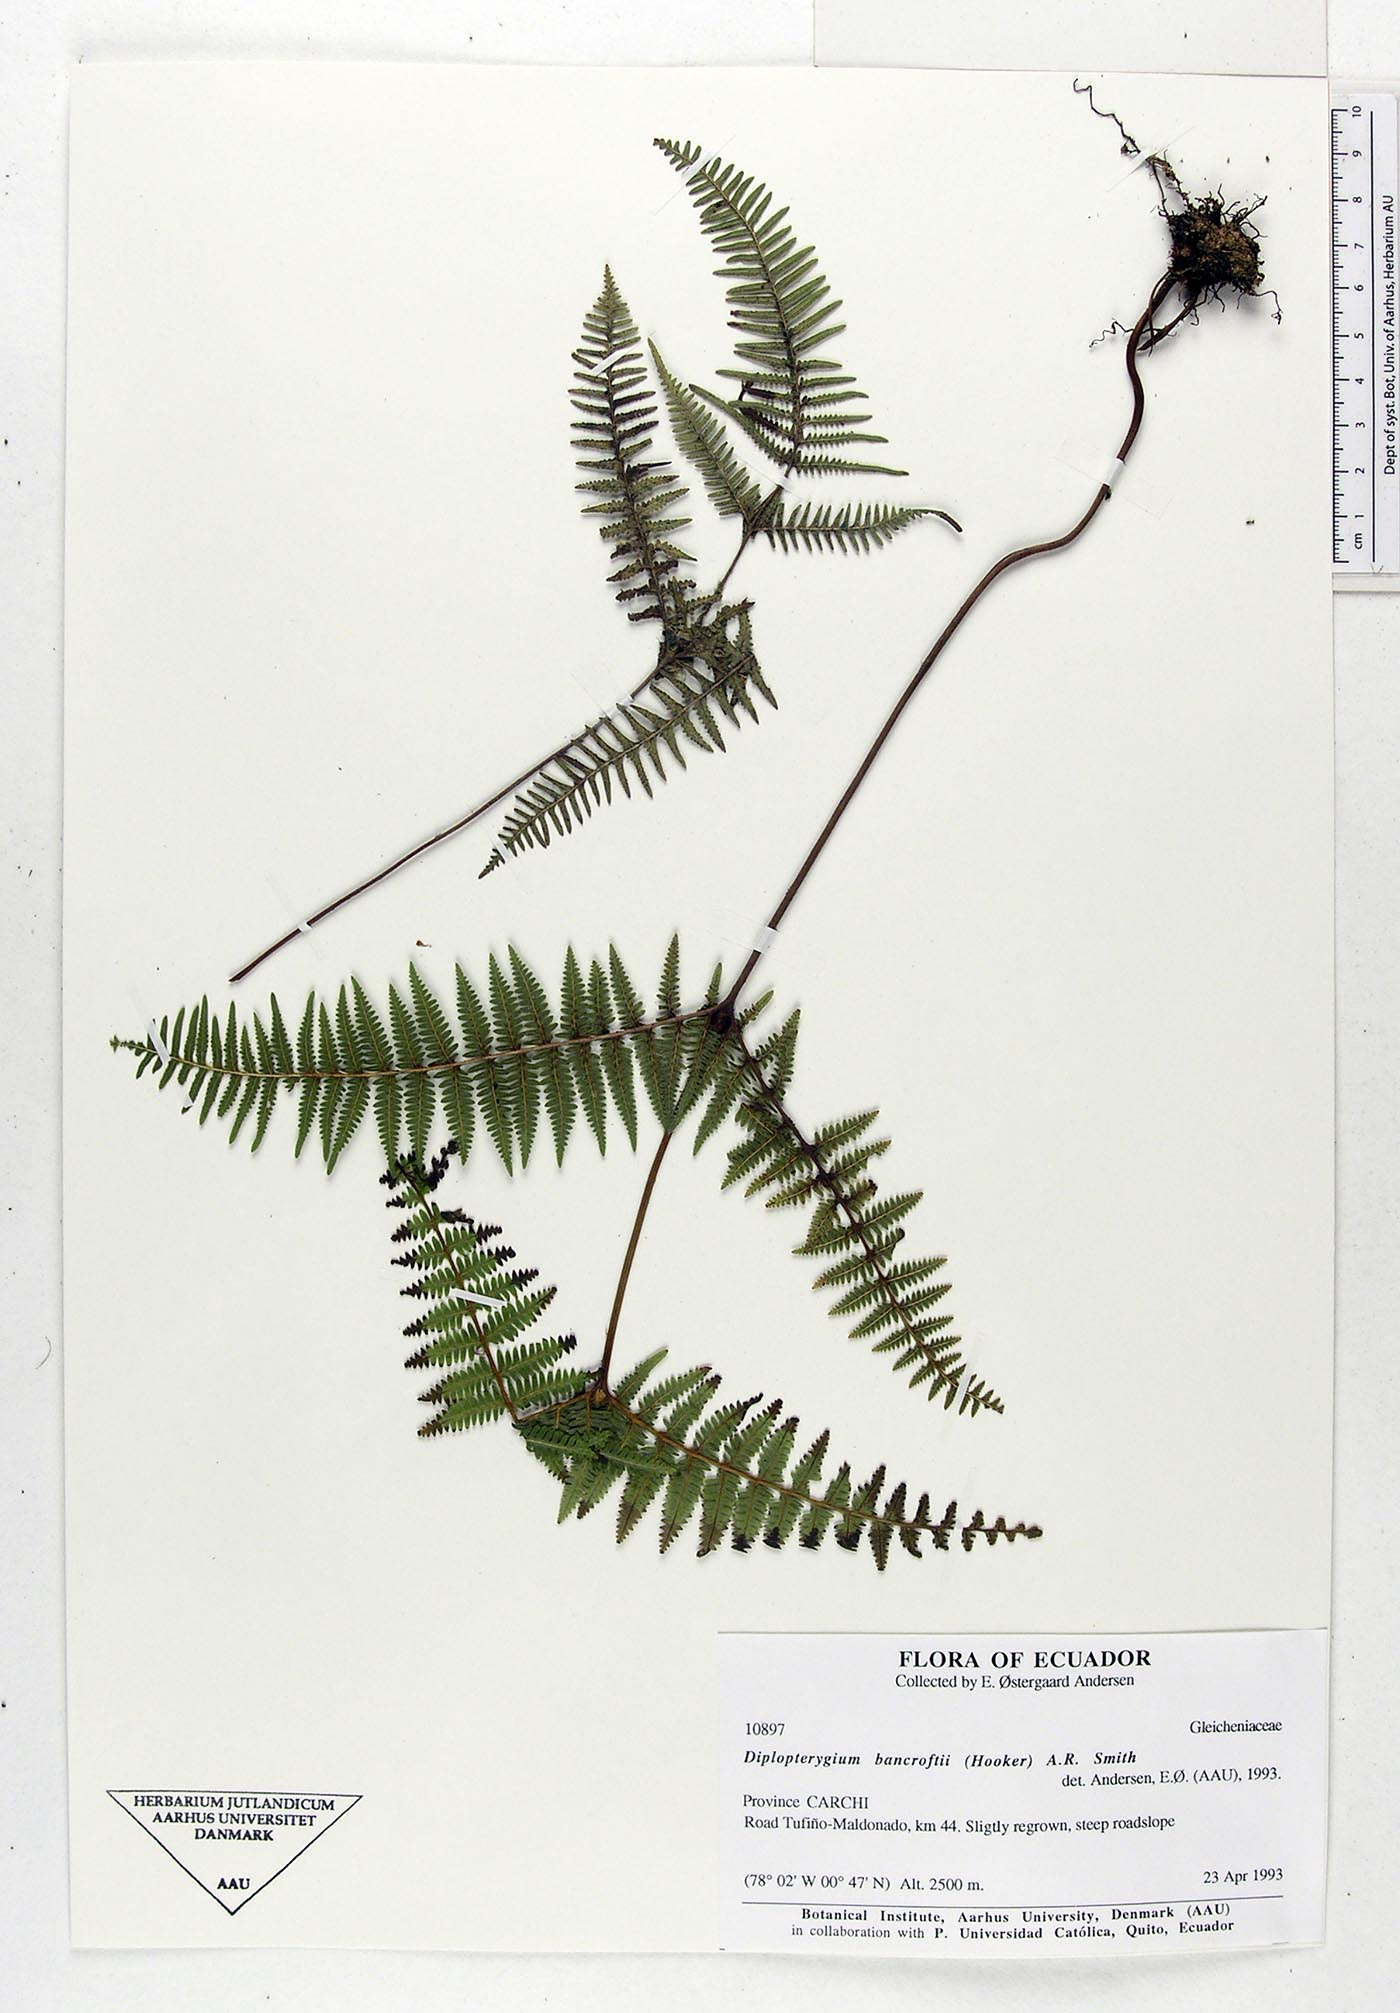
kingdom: Plantae
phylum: Tracheophyta
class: Polypodiopsida
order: Gleicheniales
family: Gleicheniaceae
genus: Diplopterygium
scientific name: Diplopterygium bancroftii
